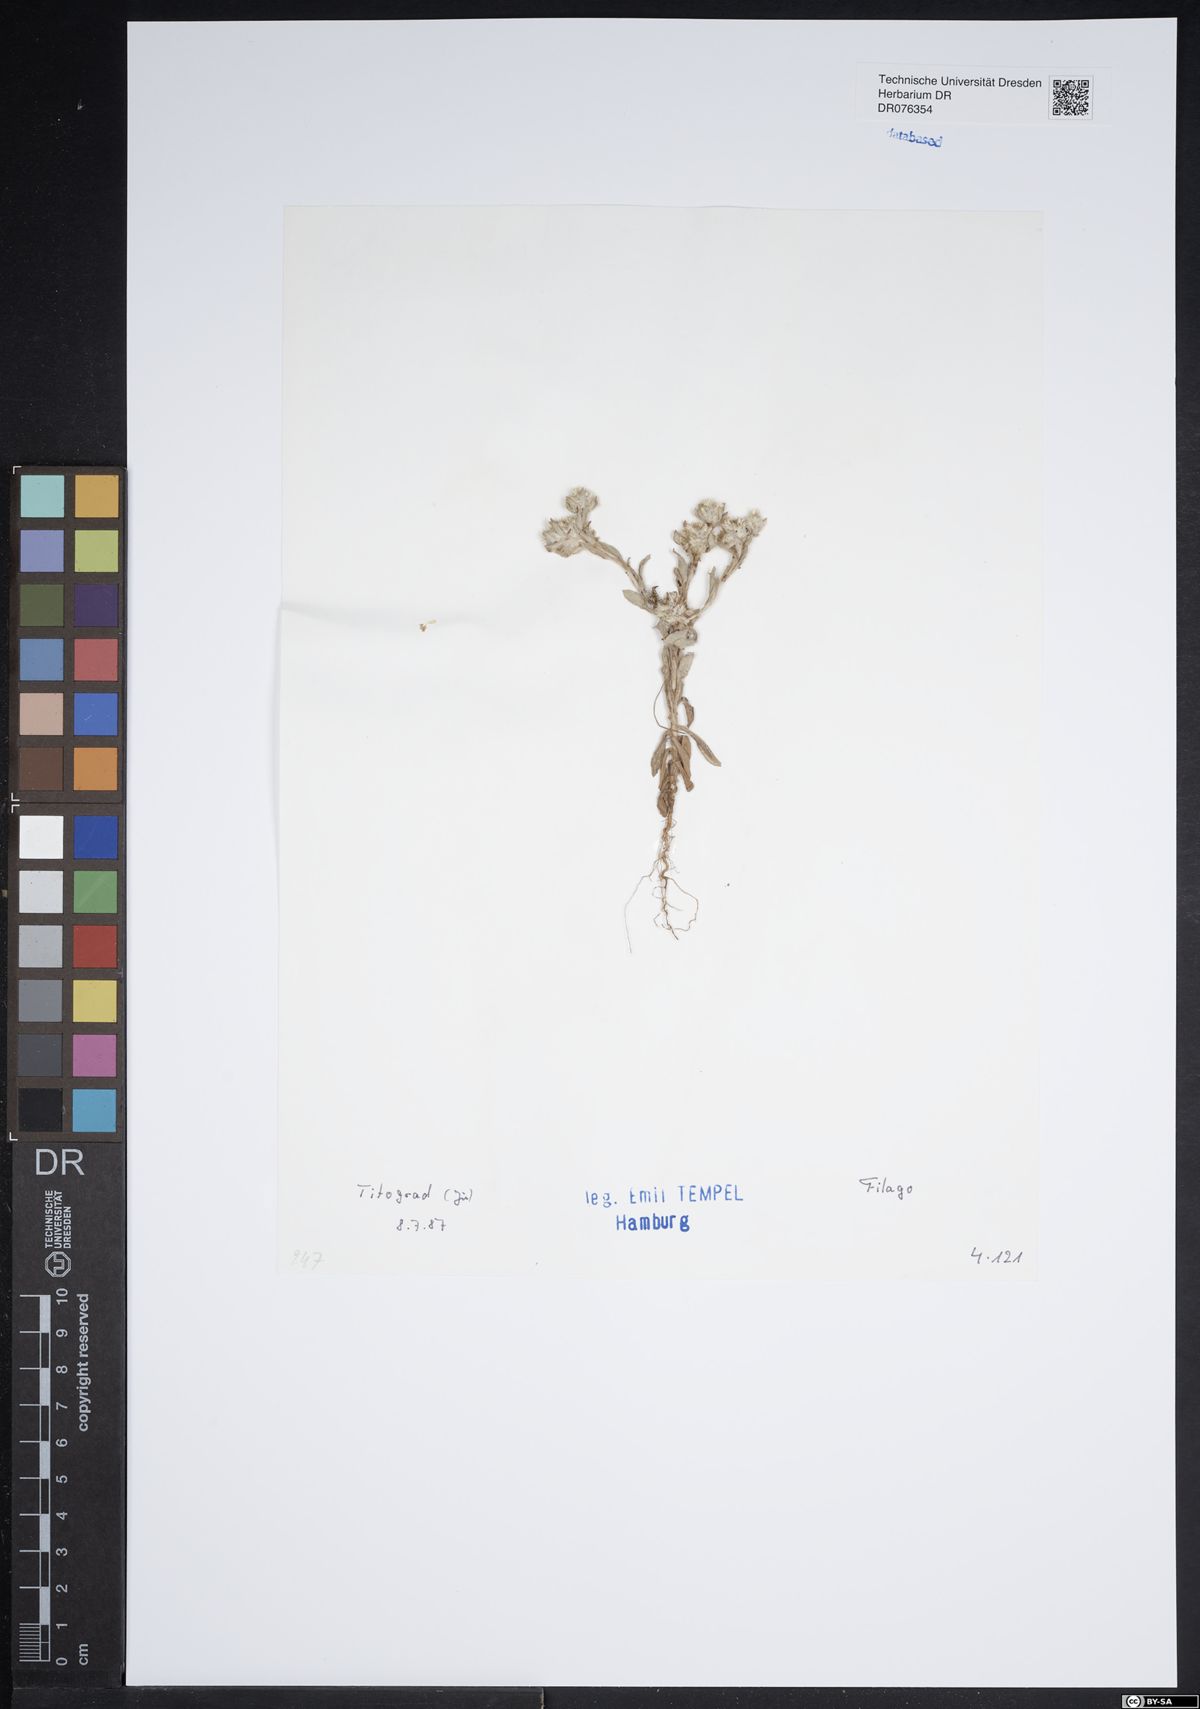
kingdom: Plantae
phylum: Tracheophyta
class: Magnoliopsida
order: Asterales
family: Asteraceae
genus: Filago
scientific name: Filago
